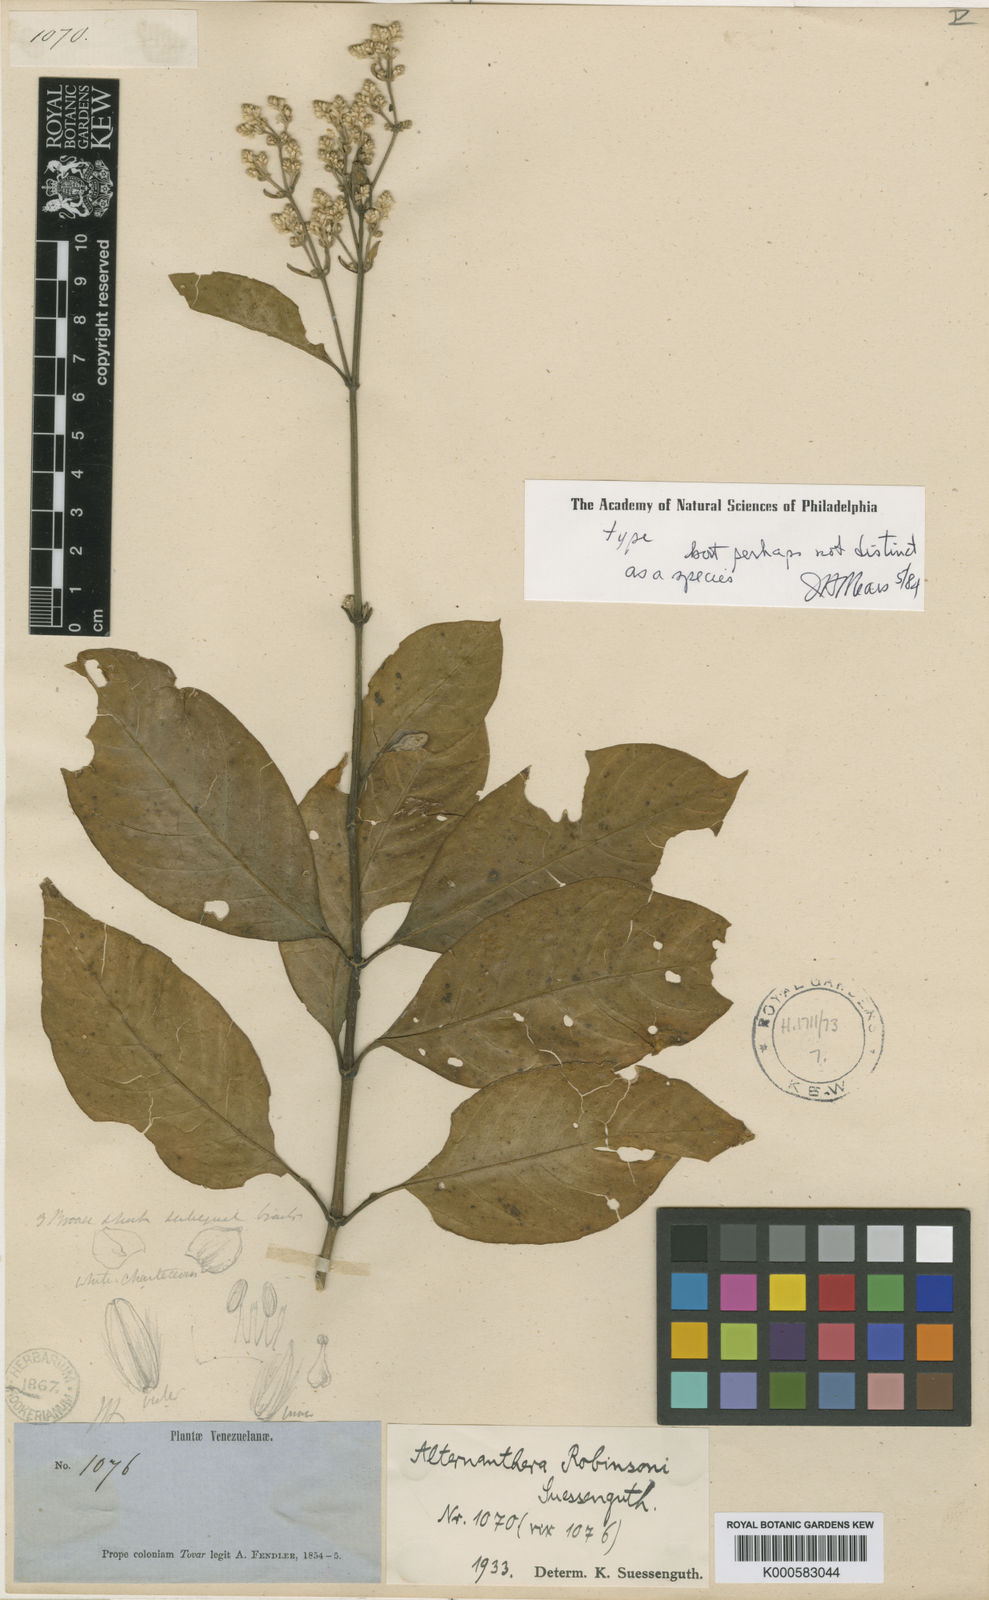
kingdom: Plantae
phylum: Tracheophyta
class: Magnoliopsida
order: Caryophyllales
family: Amaranthaceae
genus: Alternanthera
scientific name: Alternanthera robinsonii
